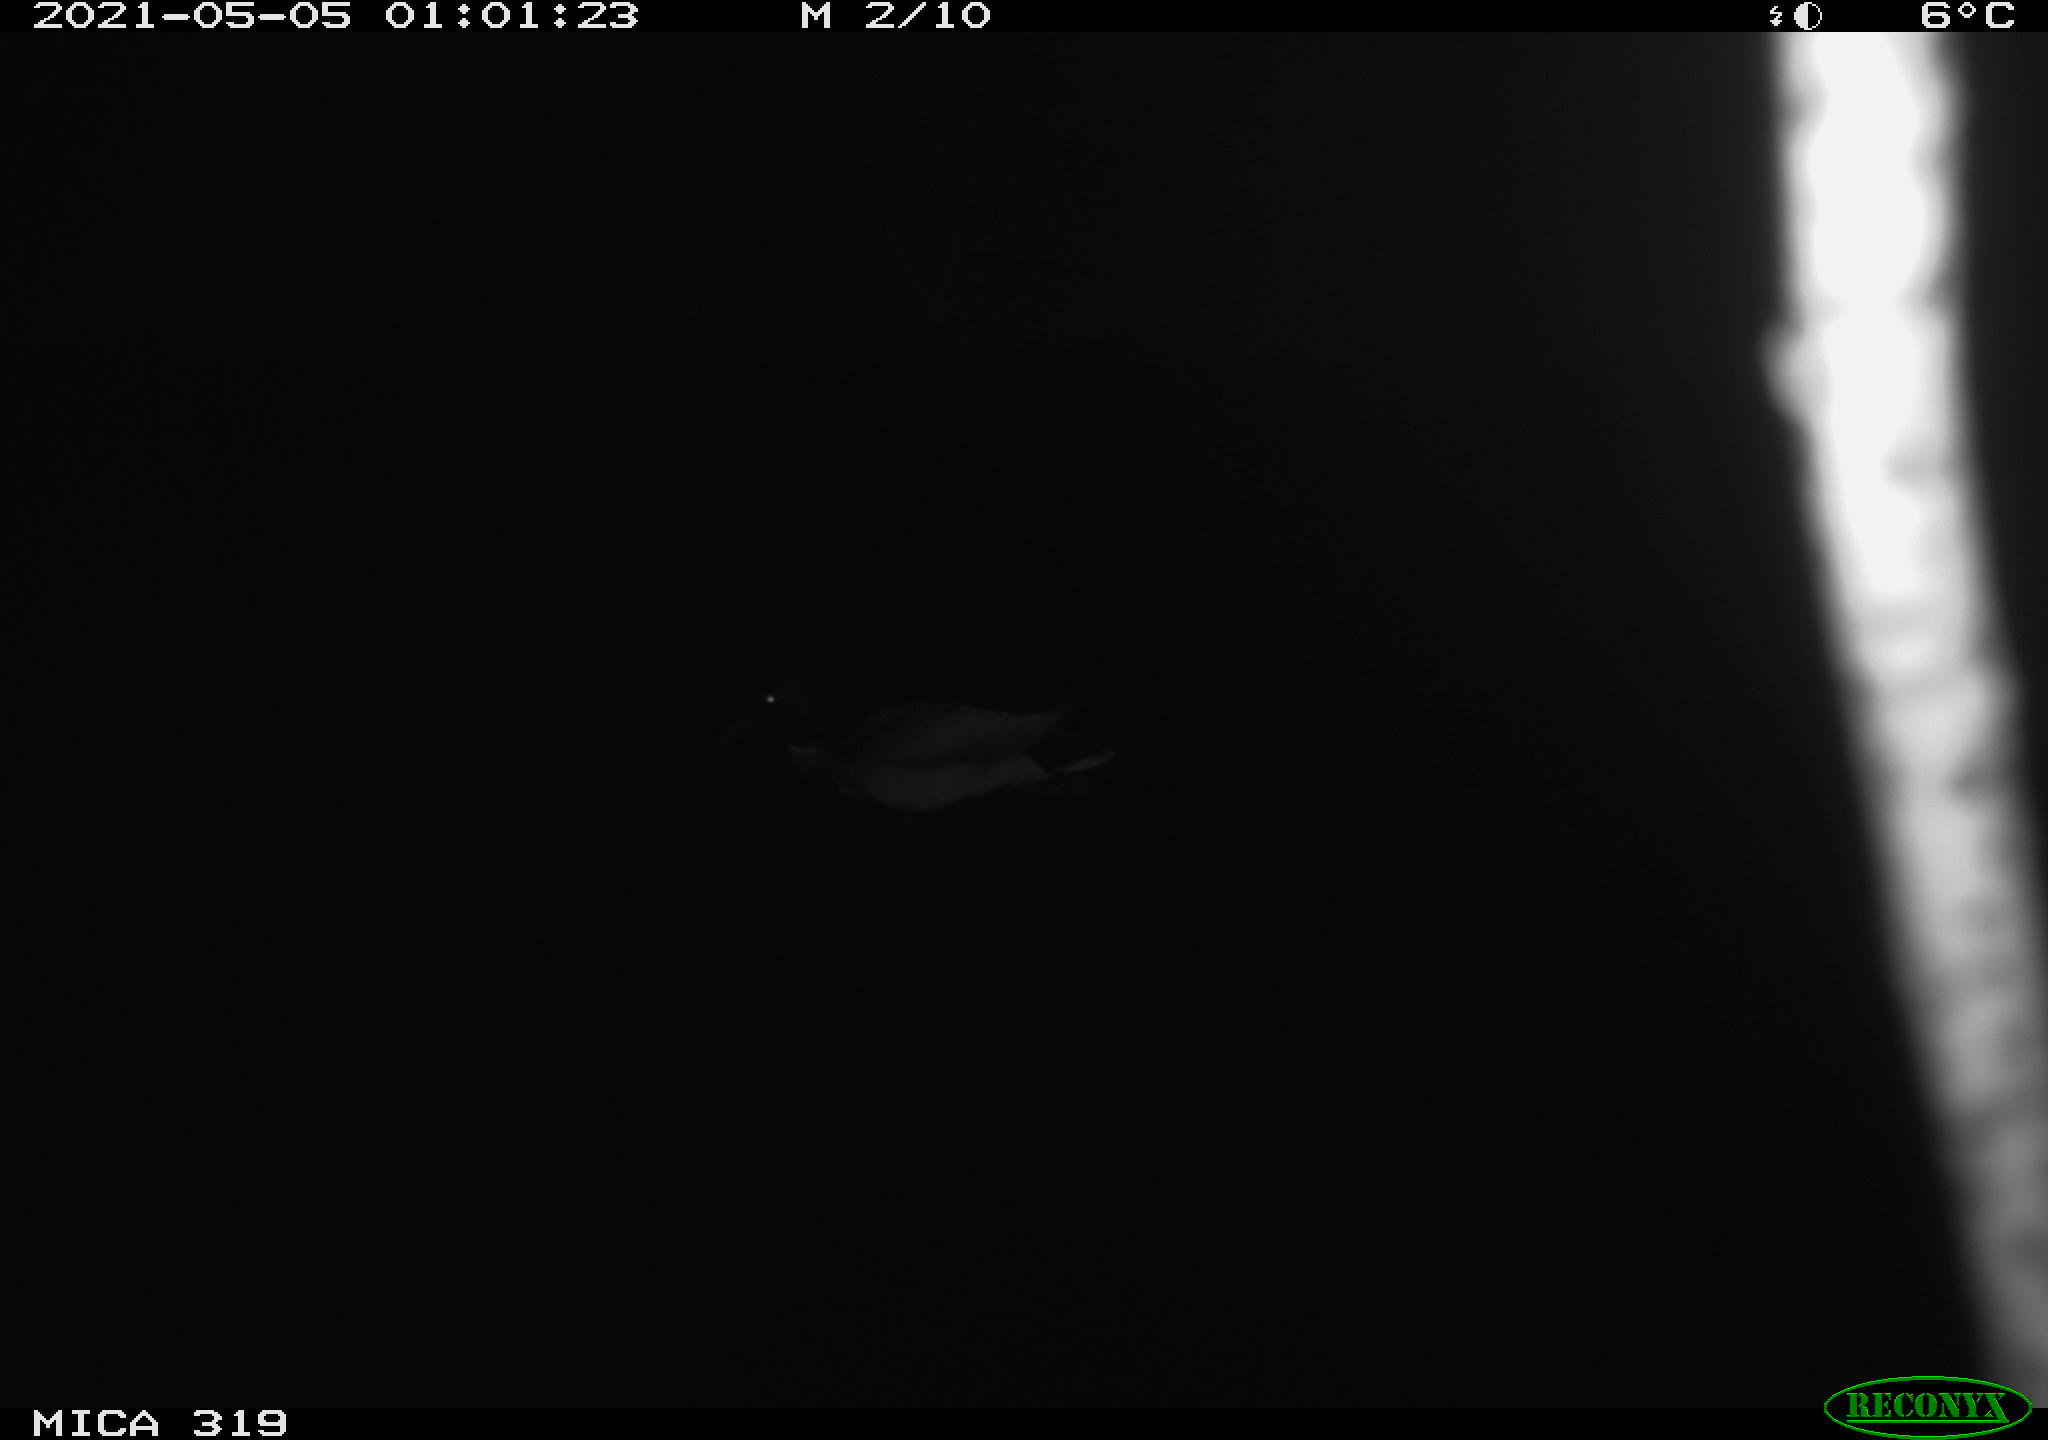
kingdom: Animalia
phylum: Chordata
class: Aves
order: Anseriformes
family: Anatidae
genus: Anas
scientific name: Anas platyrhynchos
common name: Mallard
